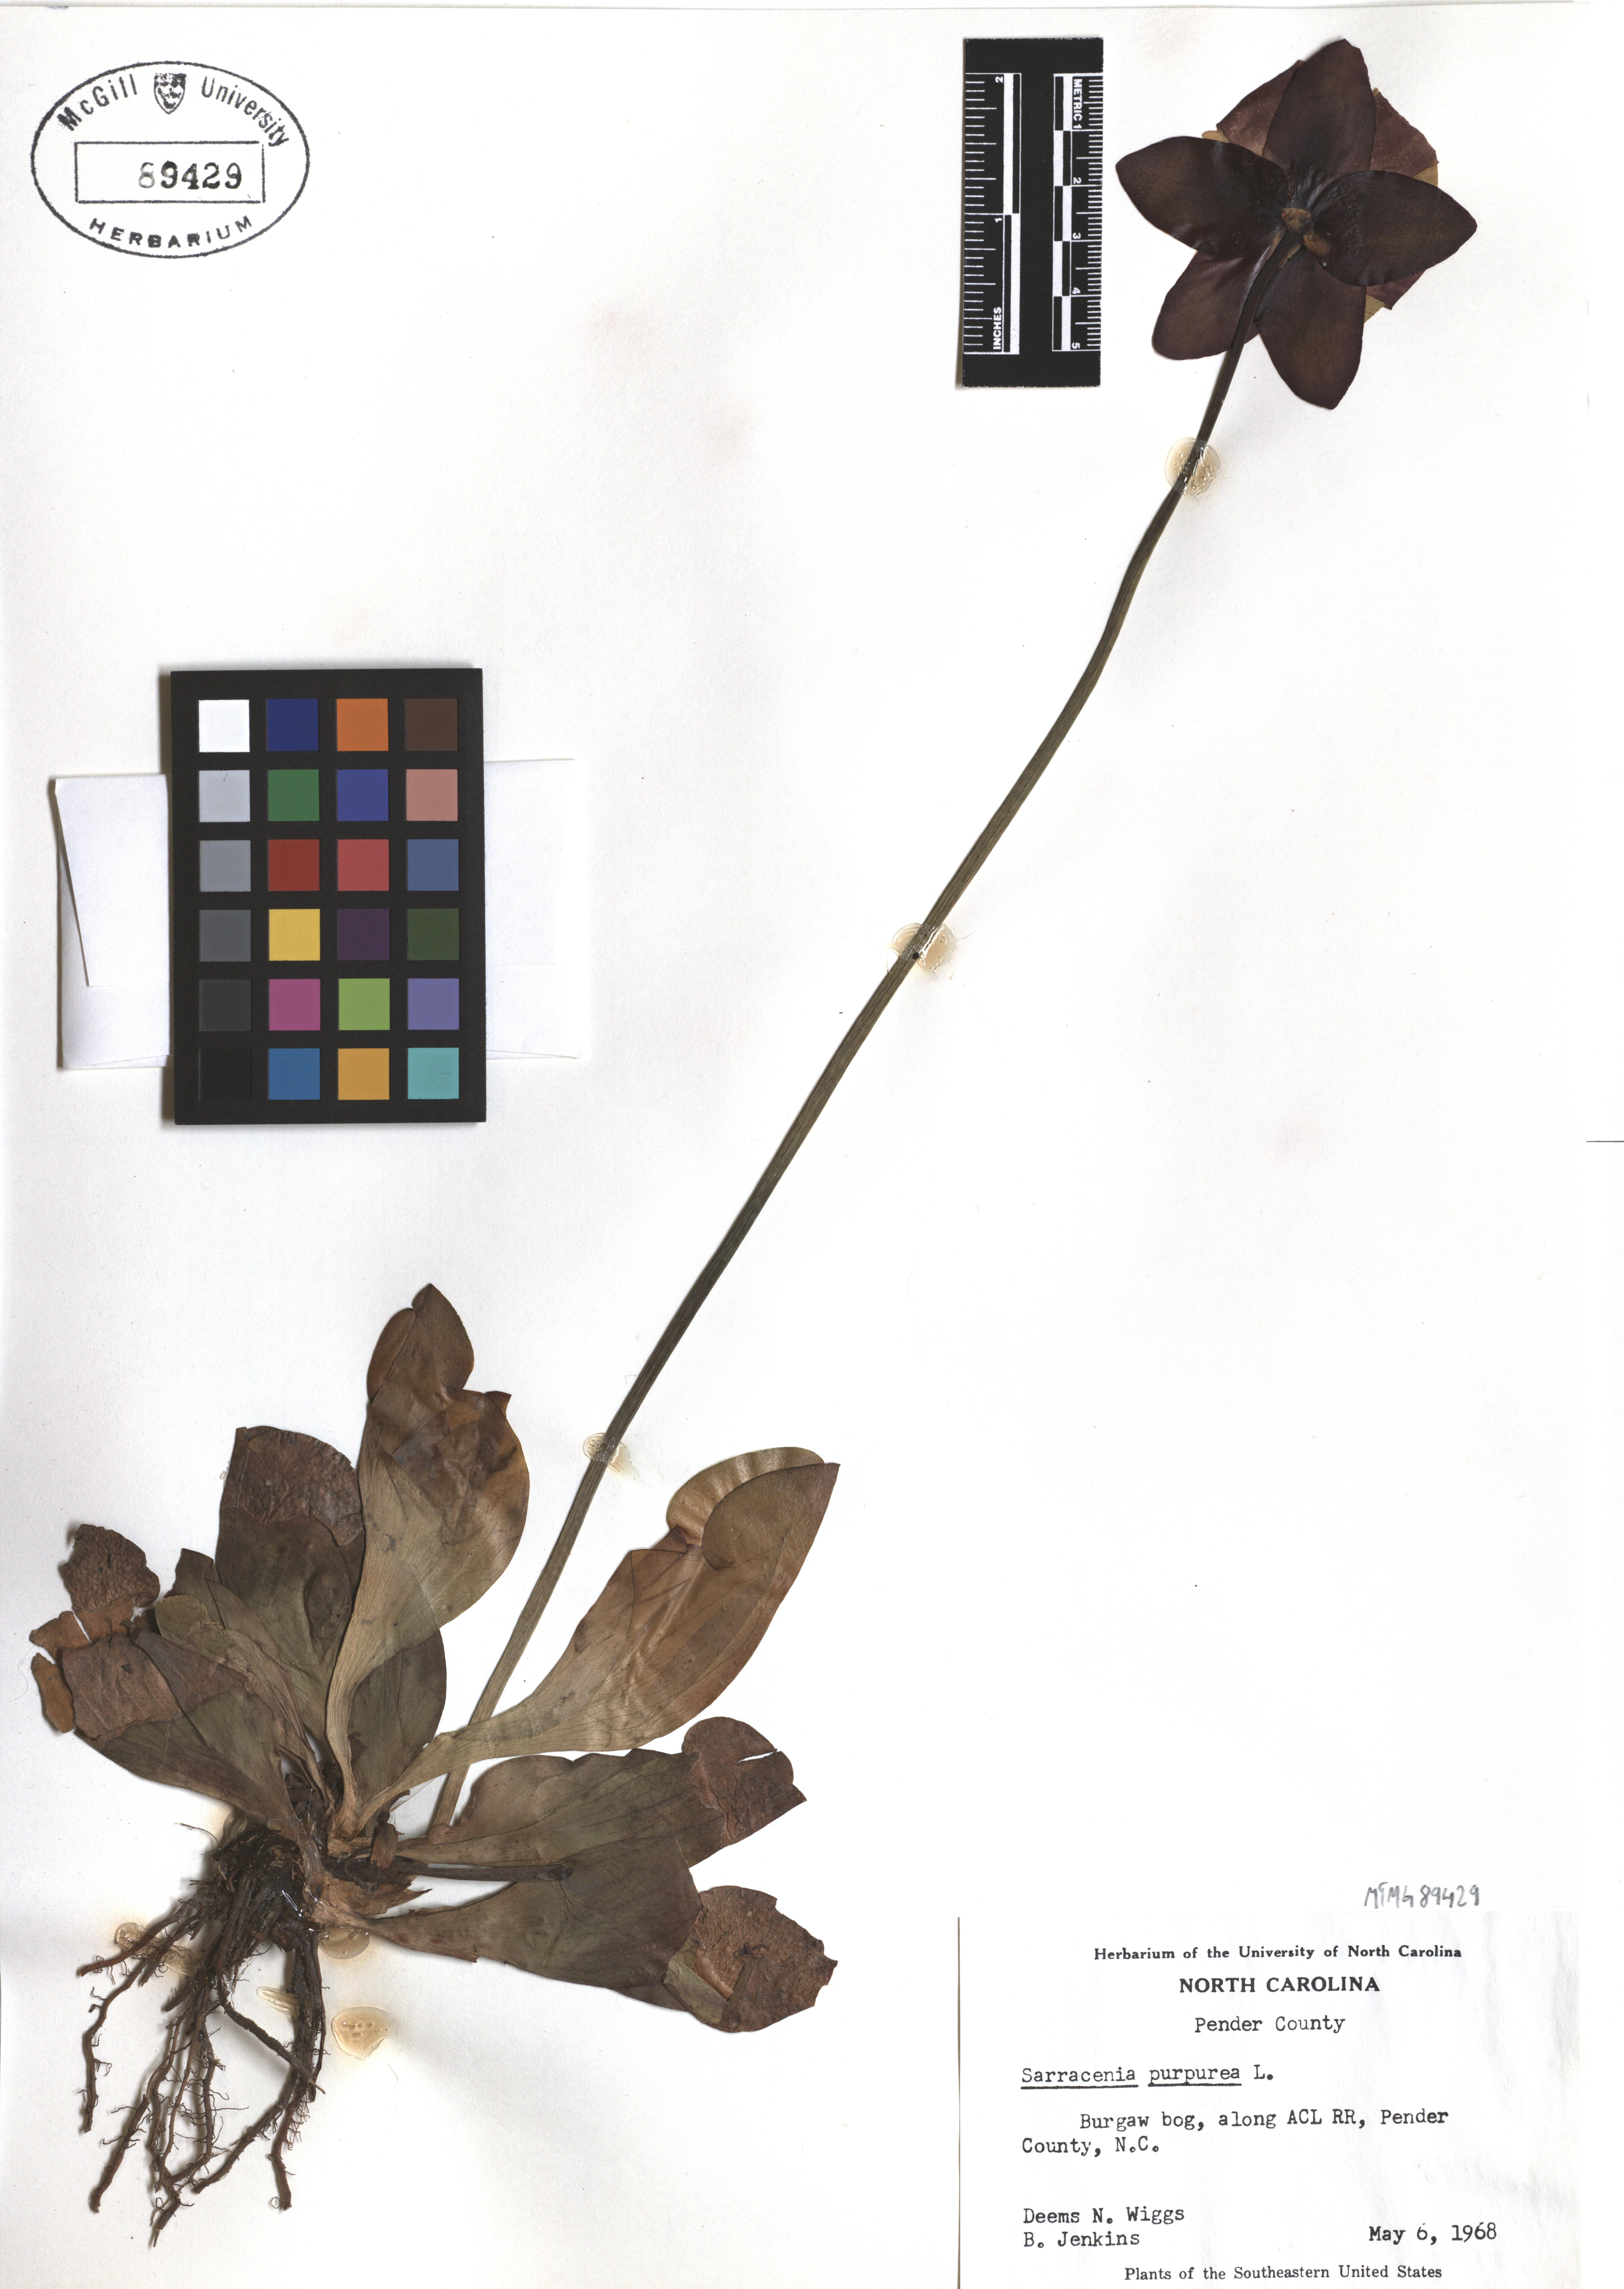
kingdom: Plantae
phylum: Tracheophyta
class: Magnoliopsida
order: Ericales
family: Sarraceniaceae
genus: Sarracenia
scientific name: Sarracenia purpurea
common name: Pitcherplant
